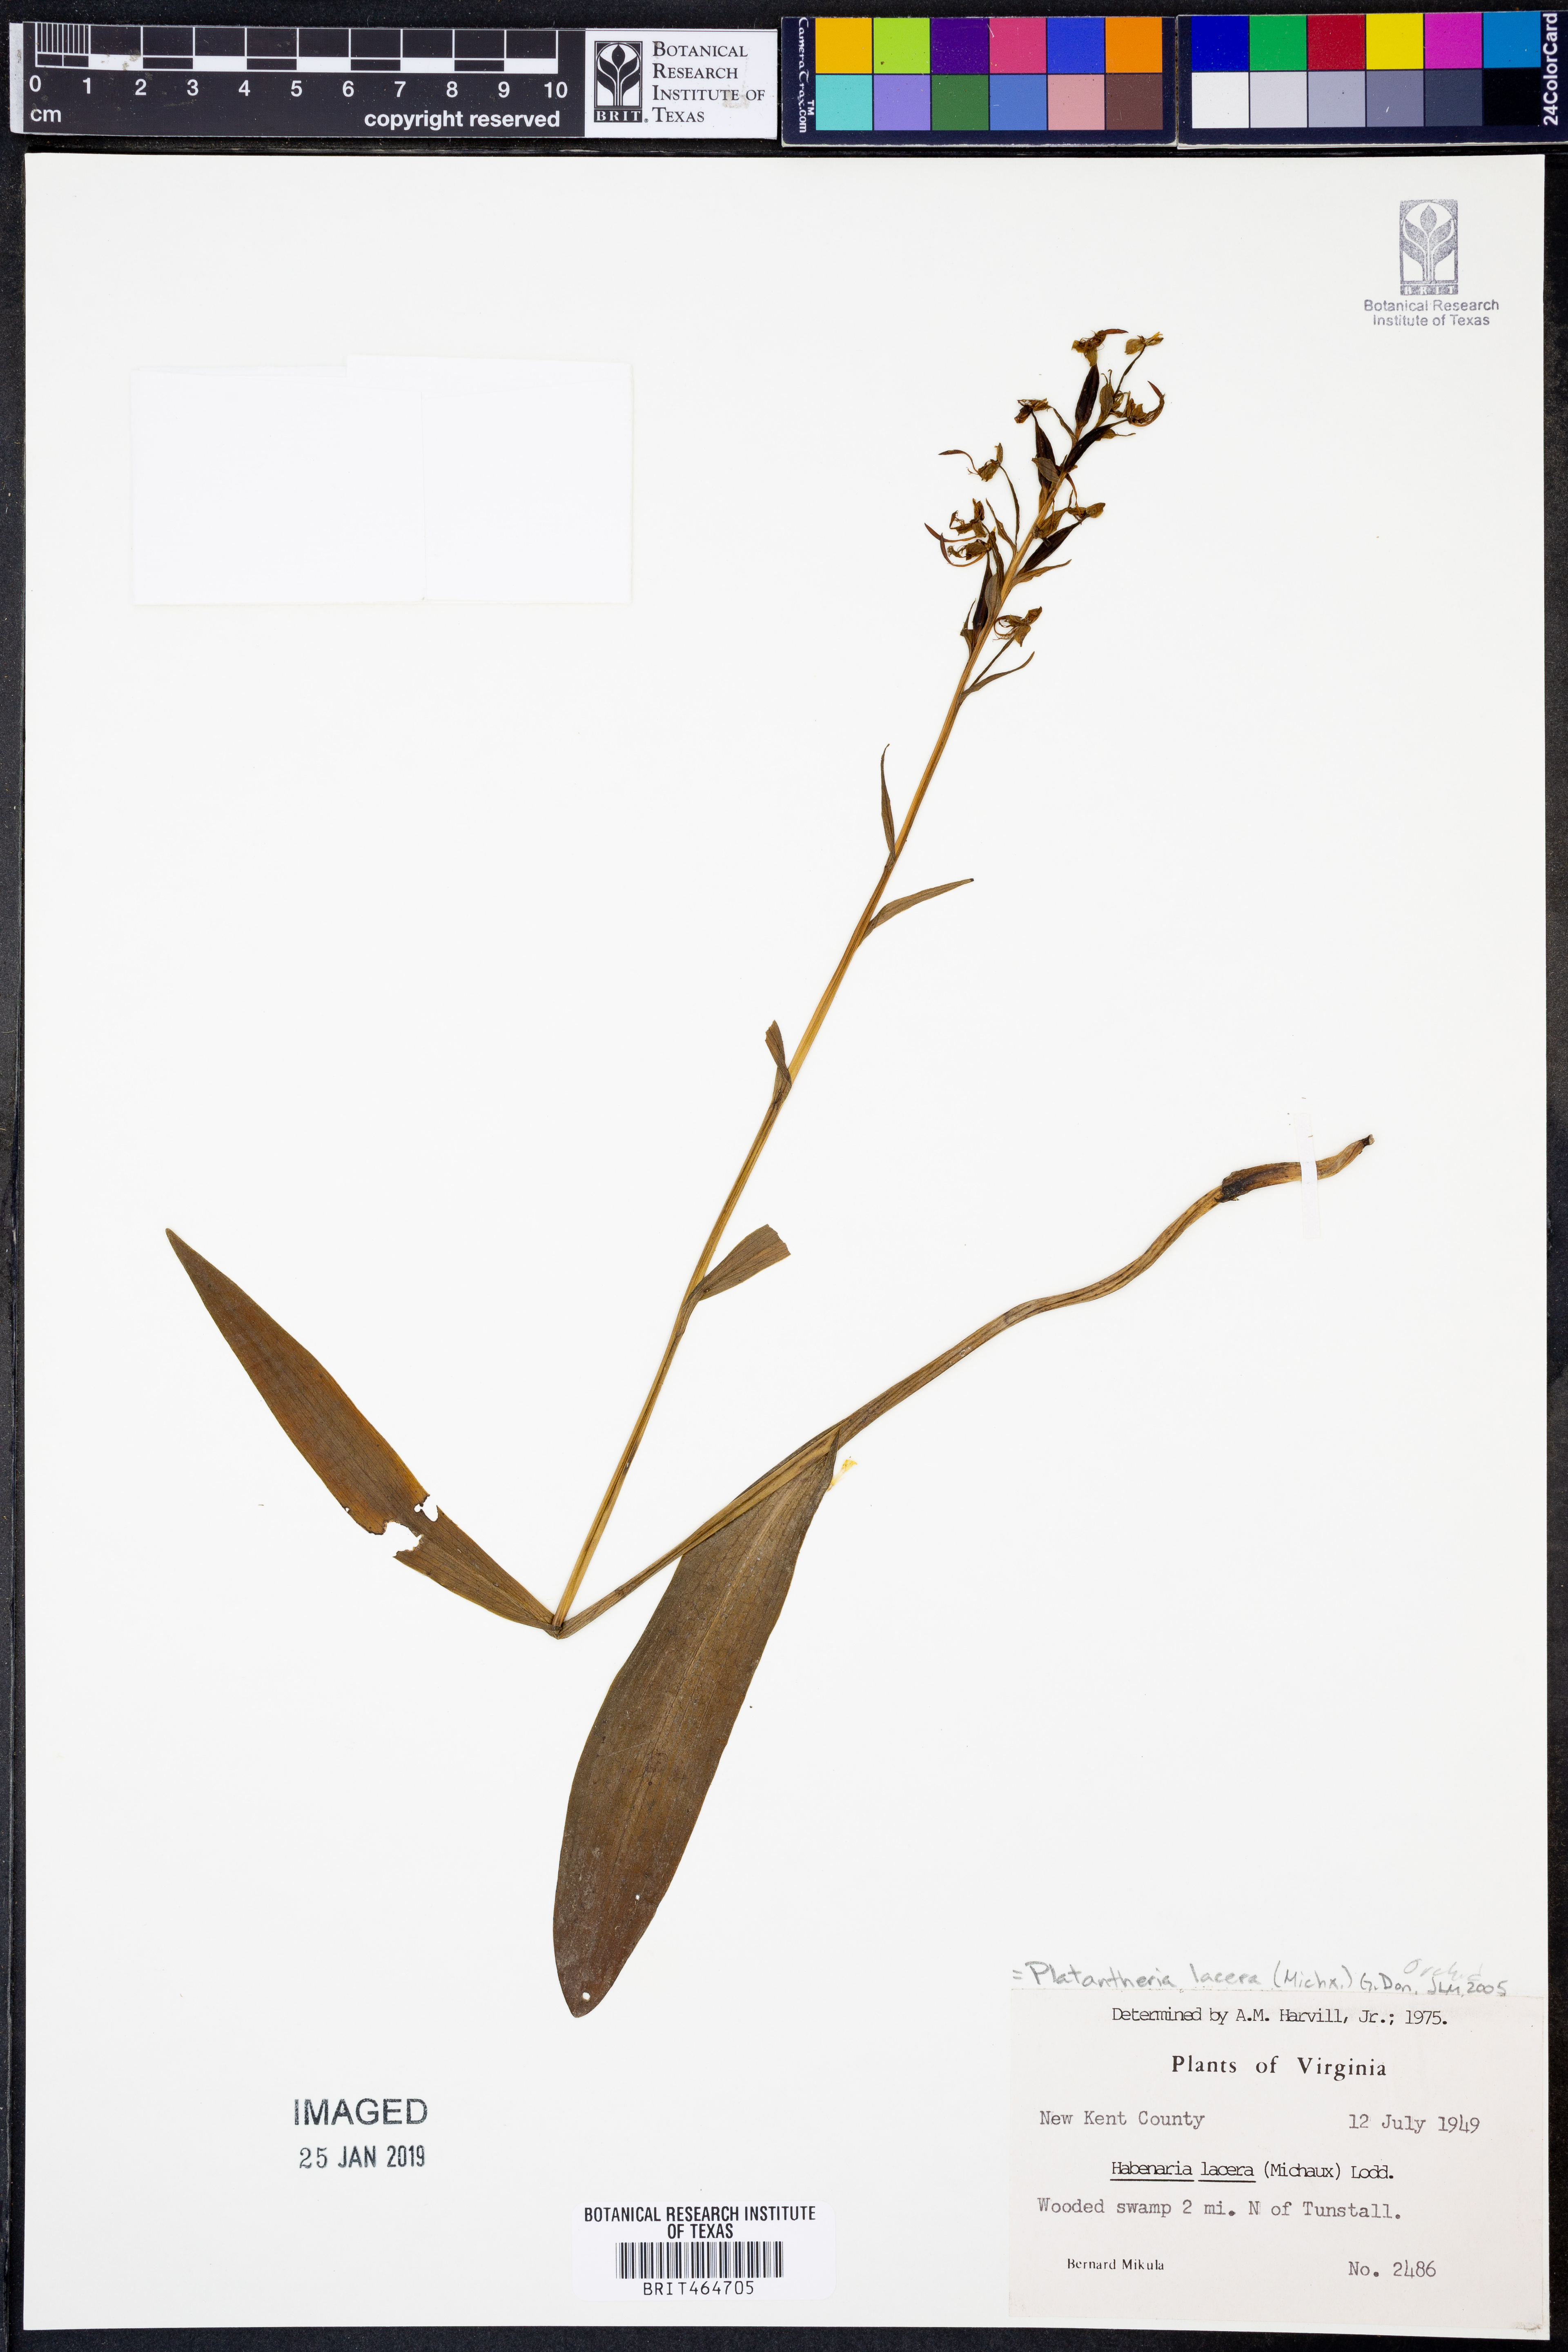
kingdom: Plantae
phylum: Tracheophyta
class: Liliopsida
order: Asparagales
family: Orchidaceae
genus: Platanthera
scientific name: Platanthera lacera
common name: Green fringed orchid
